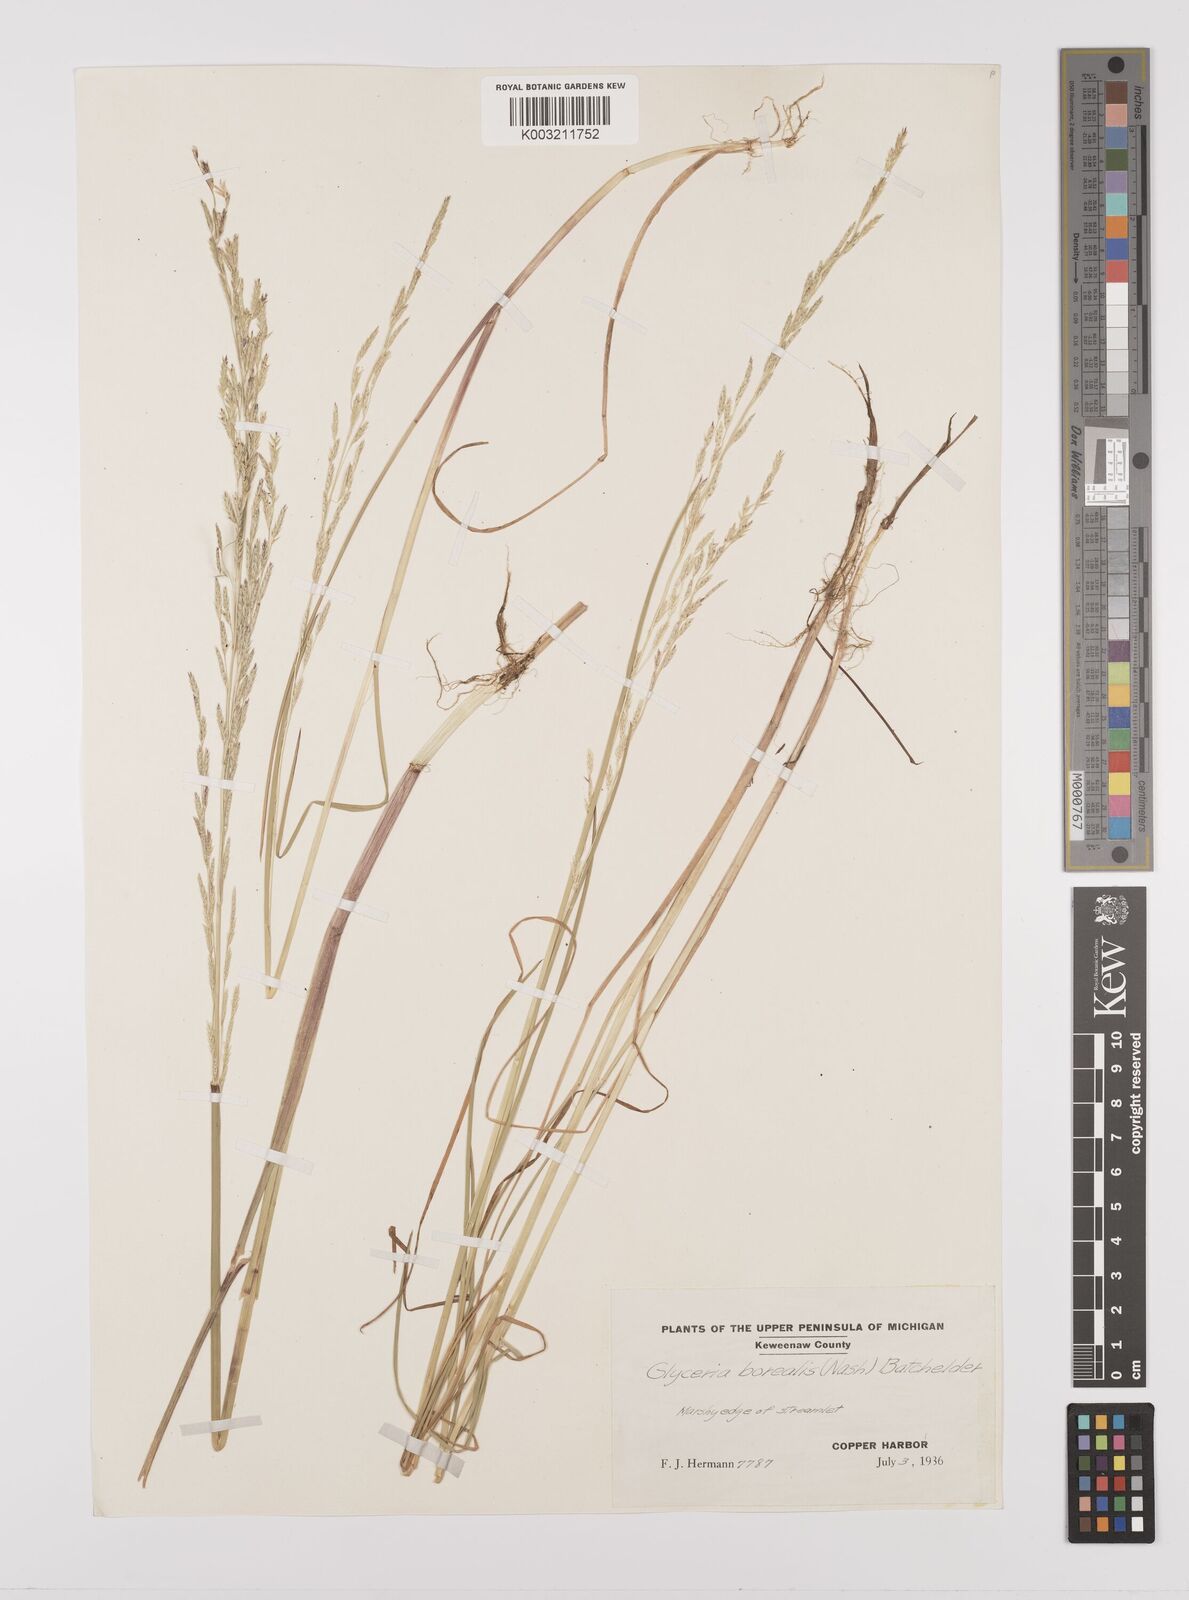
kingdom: Plantae
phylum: Tracheophyta
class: Liliopsida
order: Poales
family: Poaceae
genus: Glyceria
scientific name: Glyceria borealis
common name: Boreal glyceria
